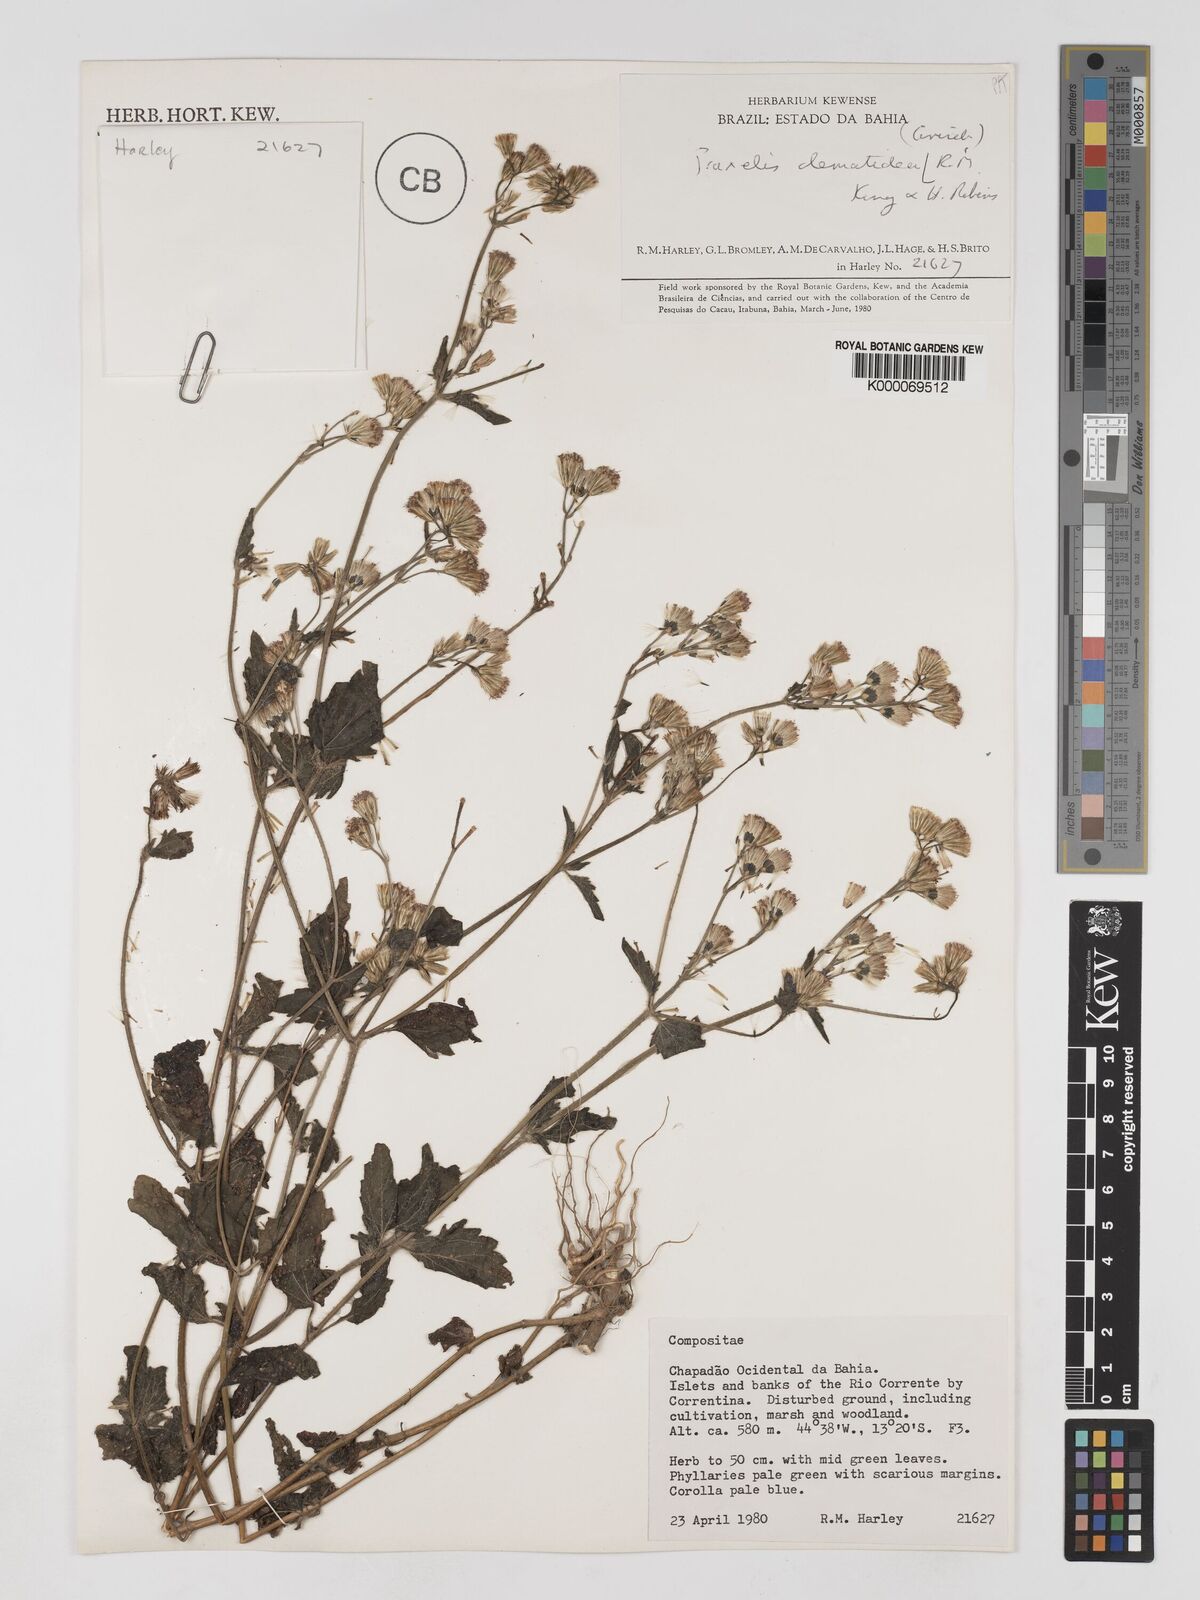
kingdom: Plantae
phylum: Tracheophyta
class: Magnoliopsida
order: Asterales
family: Asteraceae
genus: Praxelis
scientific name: Praxelis clematidea
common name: Praxelis
